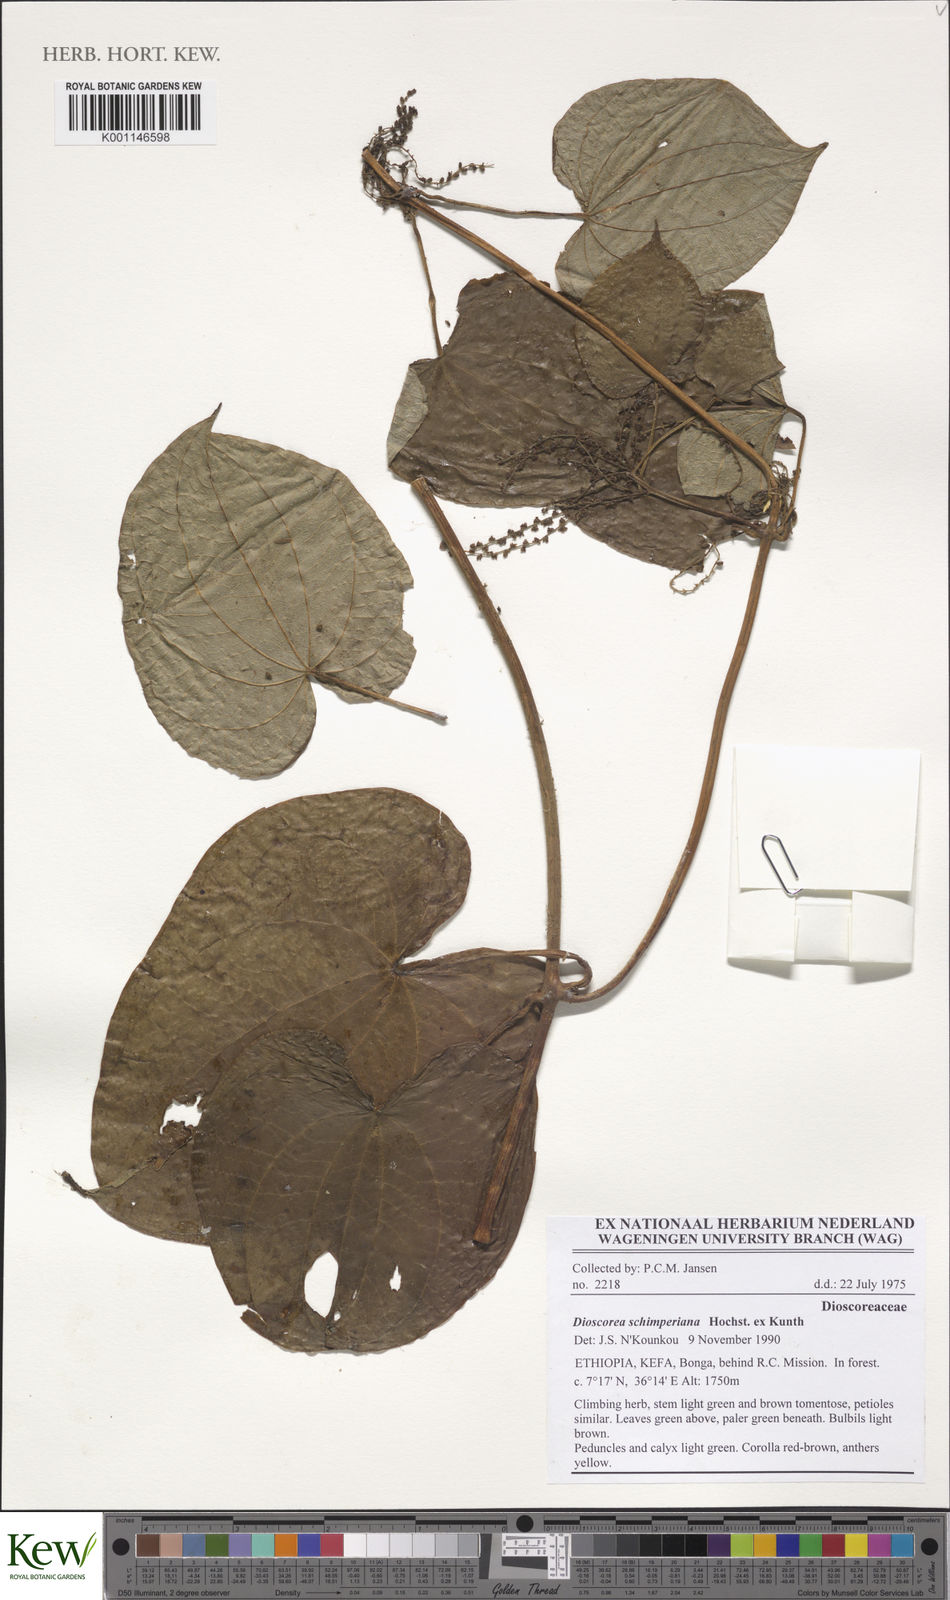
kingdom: Plantae
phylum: Tracheophyta
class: Liliopsida
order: Dioscoreales
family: Dioscoreaceae
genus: Dioscorea
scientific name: Dioscorea schimperiana
